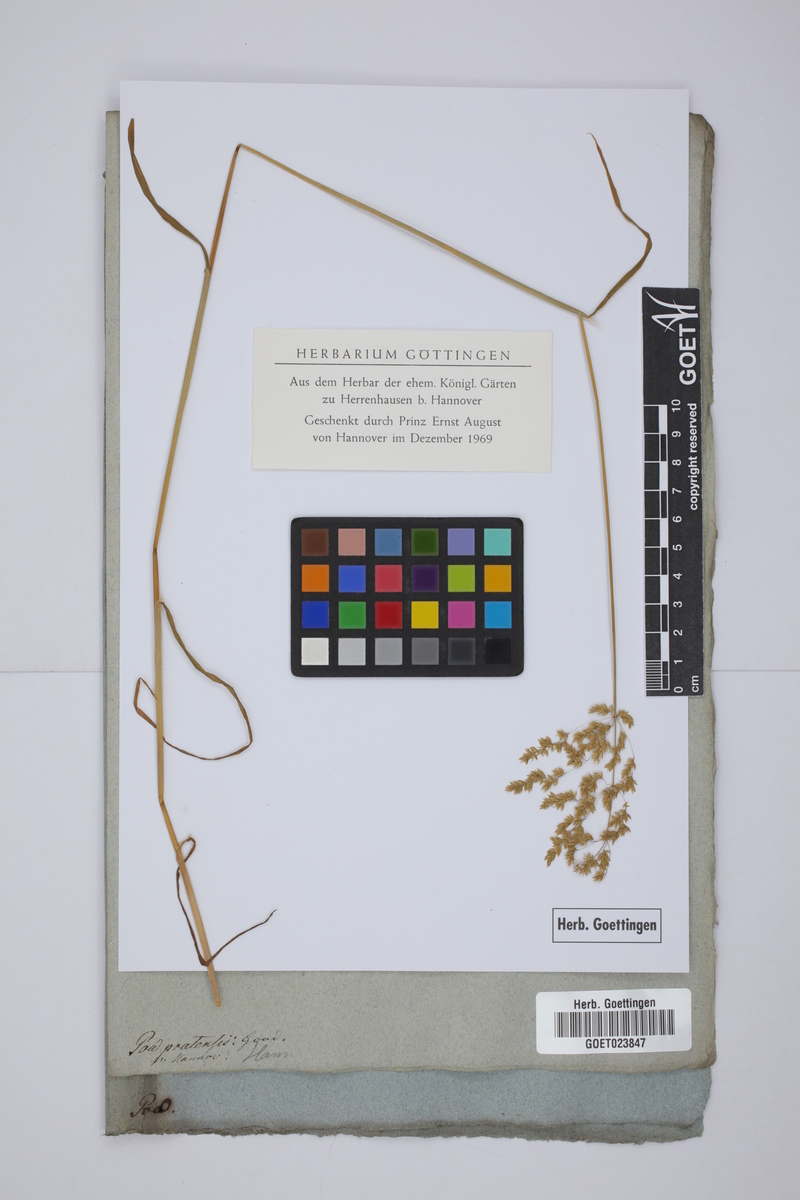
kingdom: Plantae
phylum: Tracheophyta
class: Liliopsida
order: Poales
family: Poaceae
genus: Poa
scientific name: Poa pratensis
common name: Kentucky bluegrass
